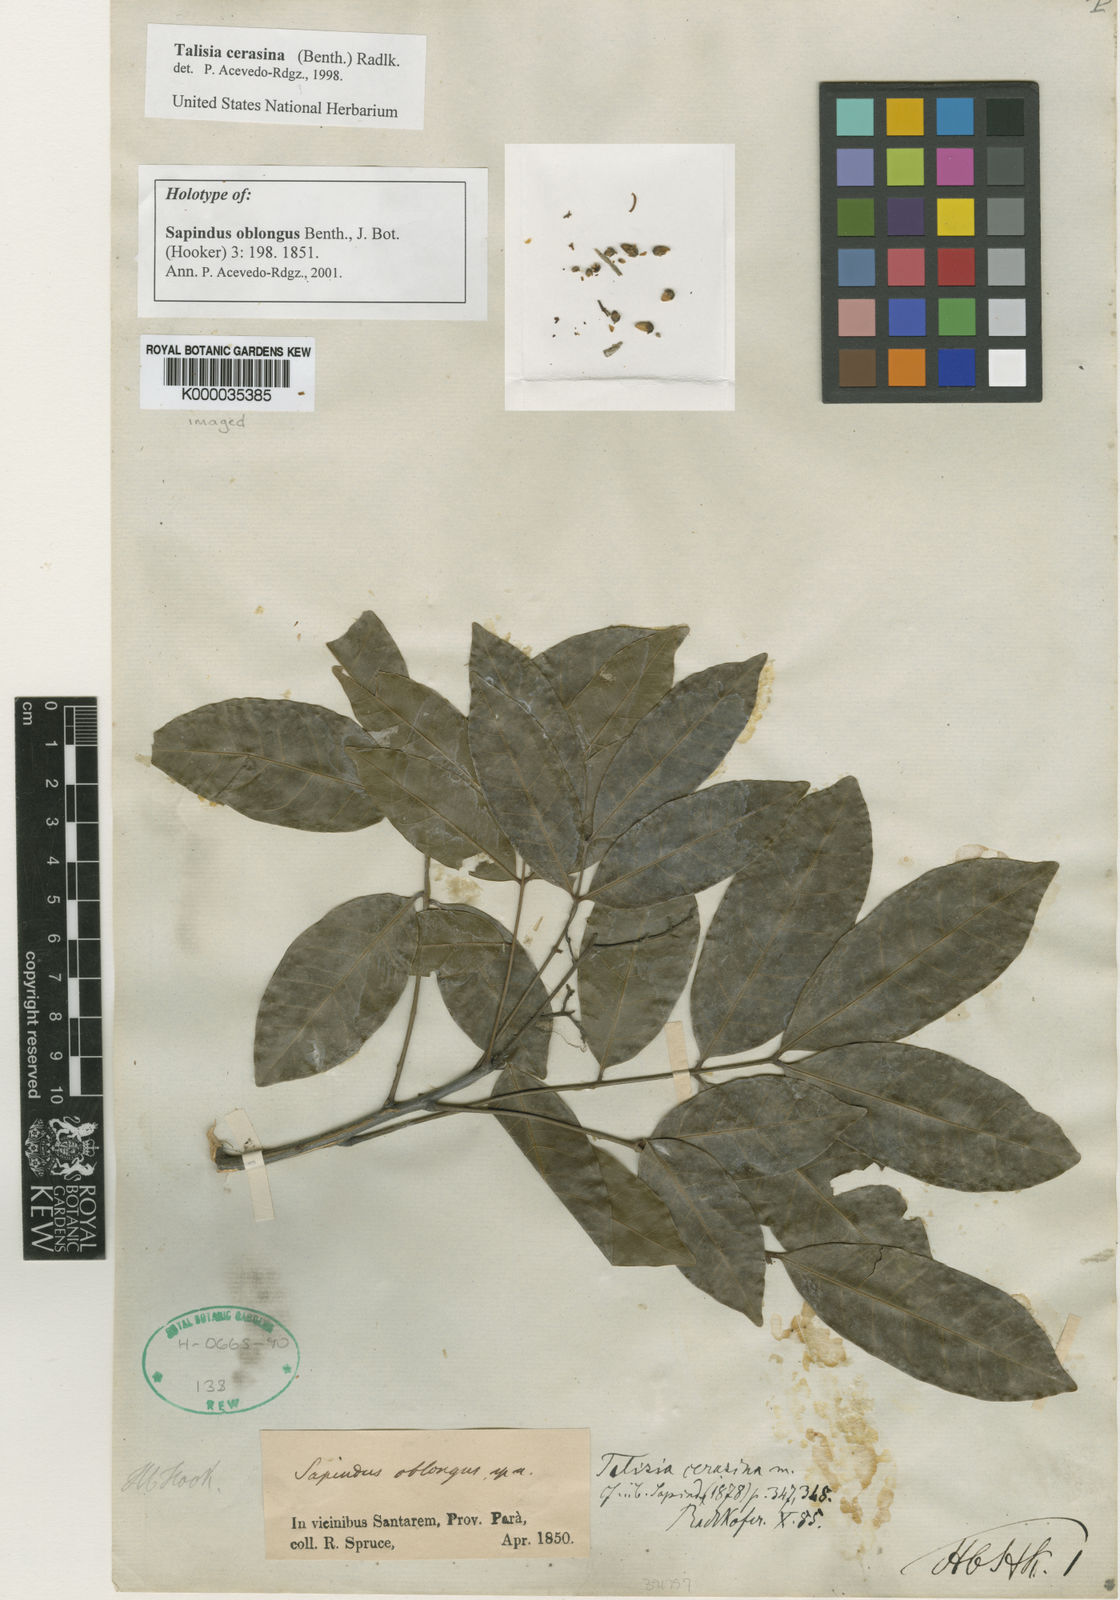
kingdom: Plantae
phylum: Tracheophyta
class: Magnoliopsida
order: Sapindales
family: Sapindaceae
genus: Talisia
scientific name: Talisia cerasina
